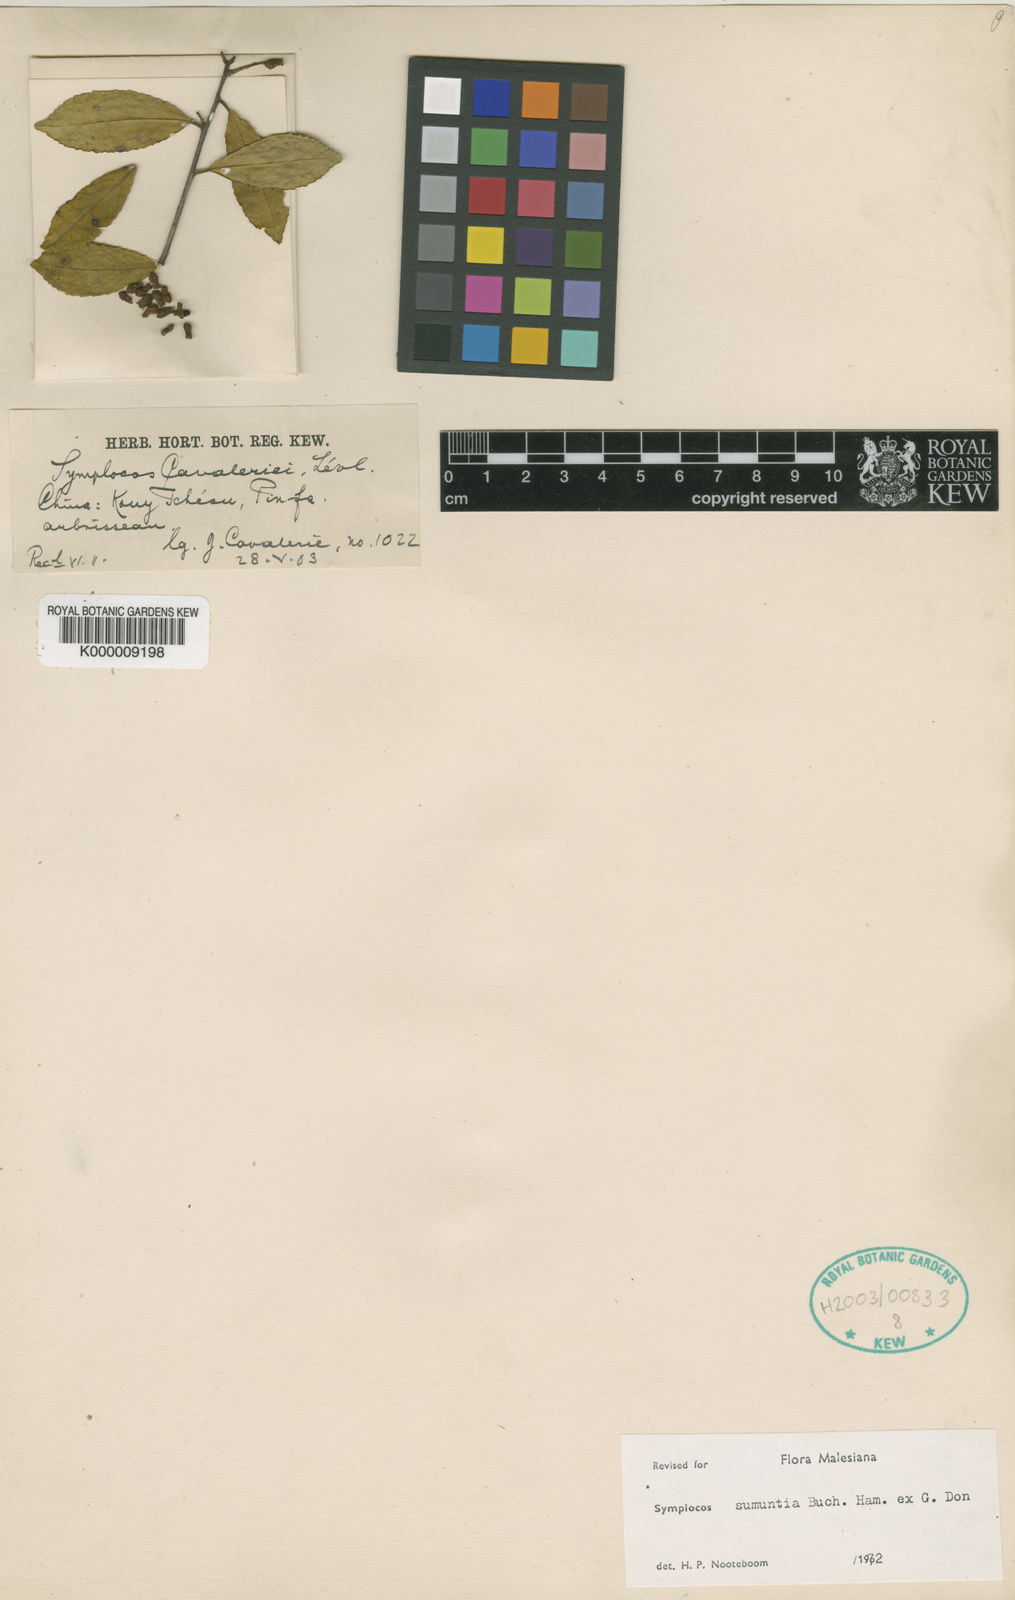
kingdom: Plantae
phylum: Tracheophyta
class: Magnoliopsida
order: Ericales
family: Symplocaceae
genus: Symplocos
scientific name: Symplocos sumuntia
